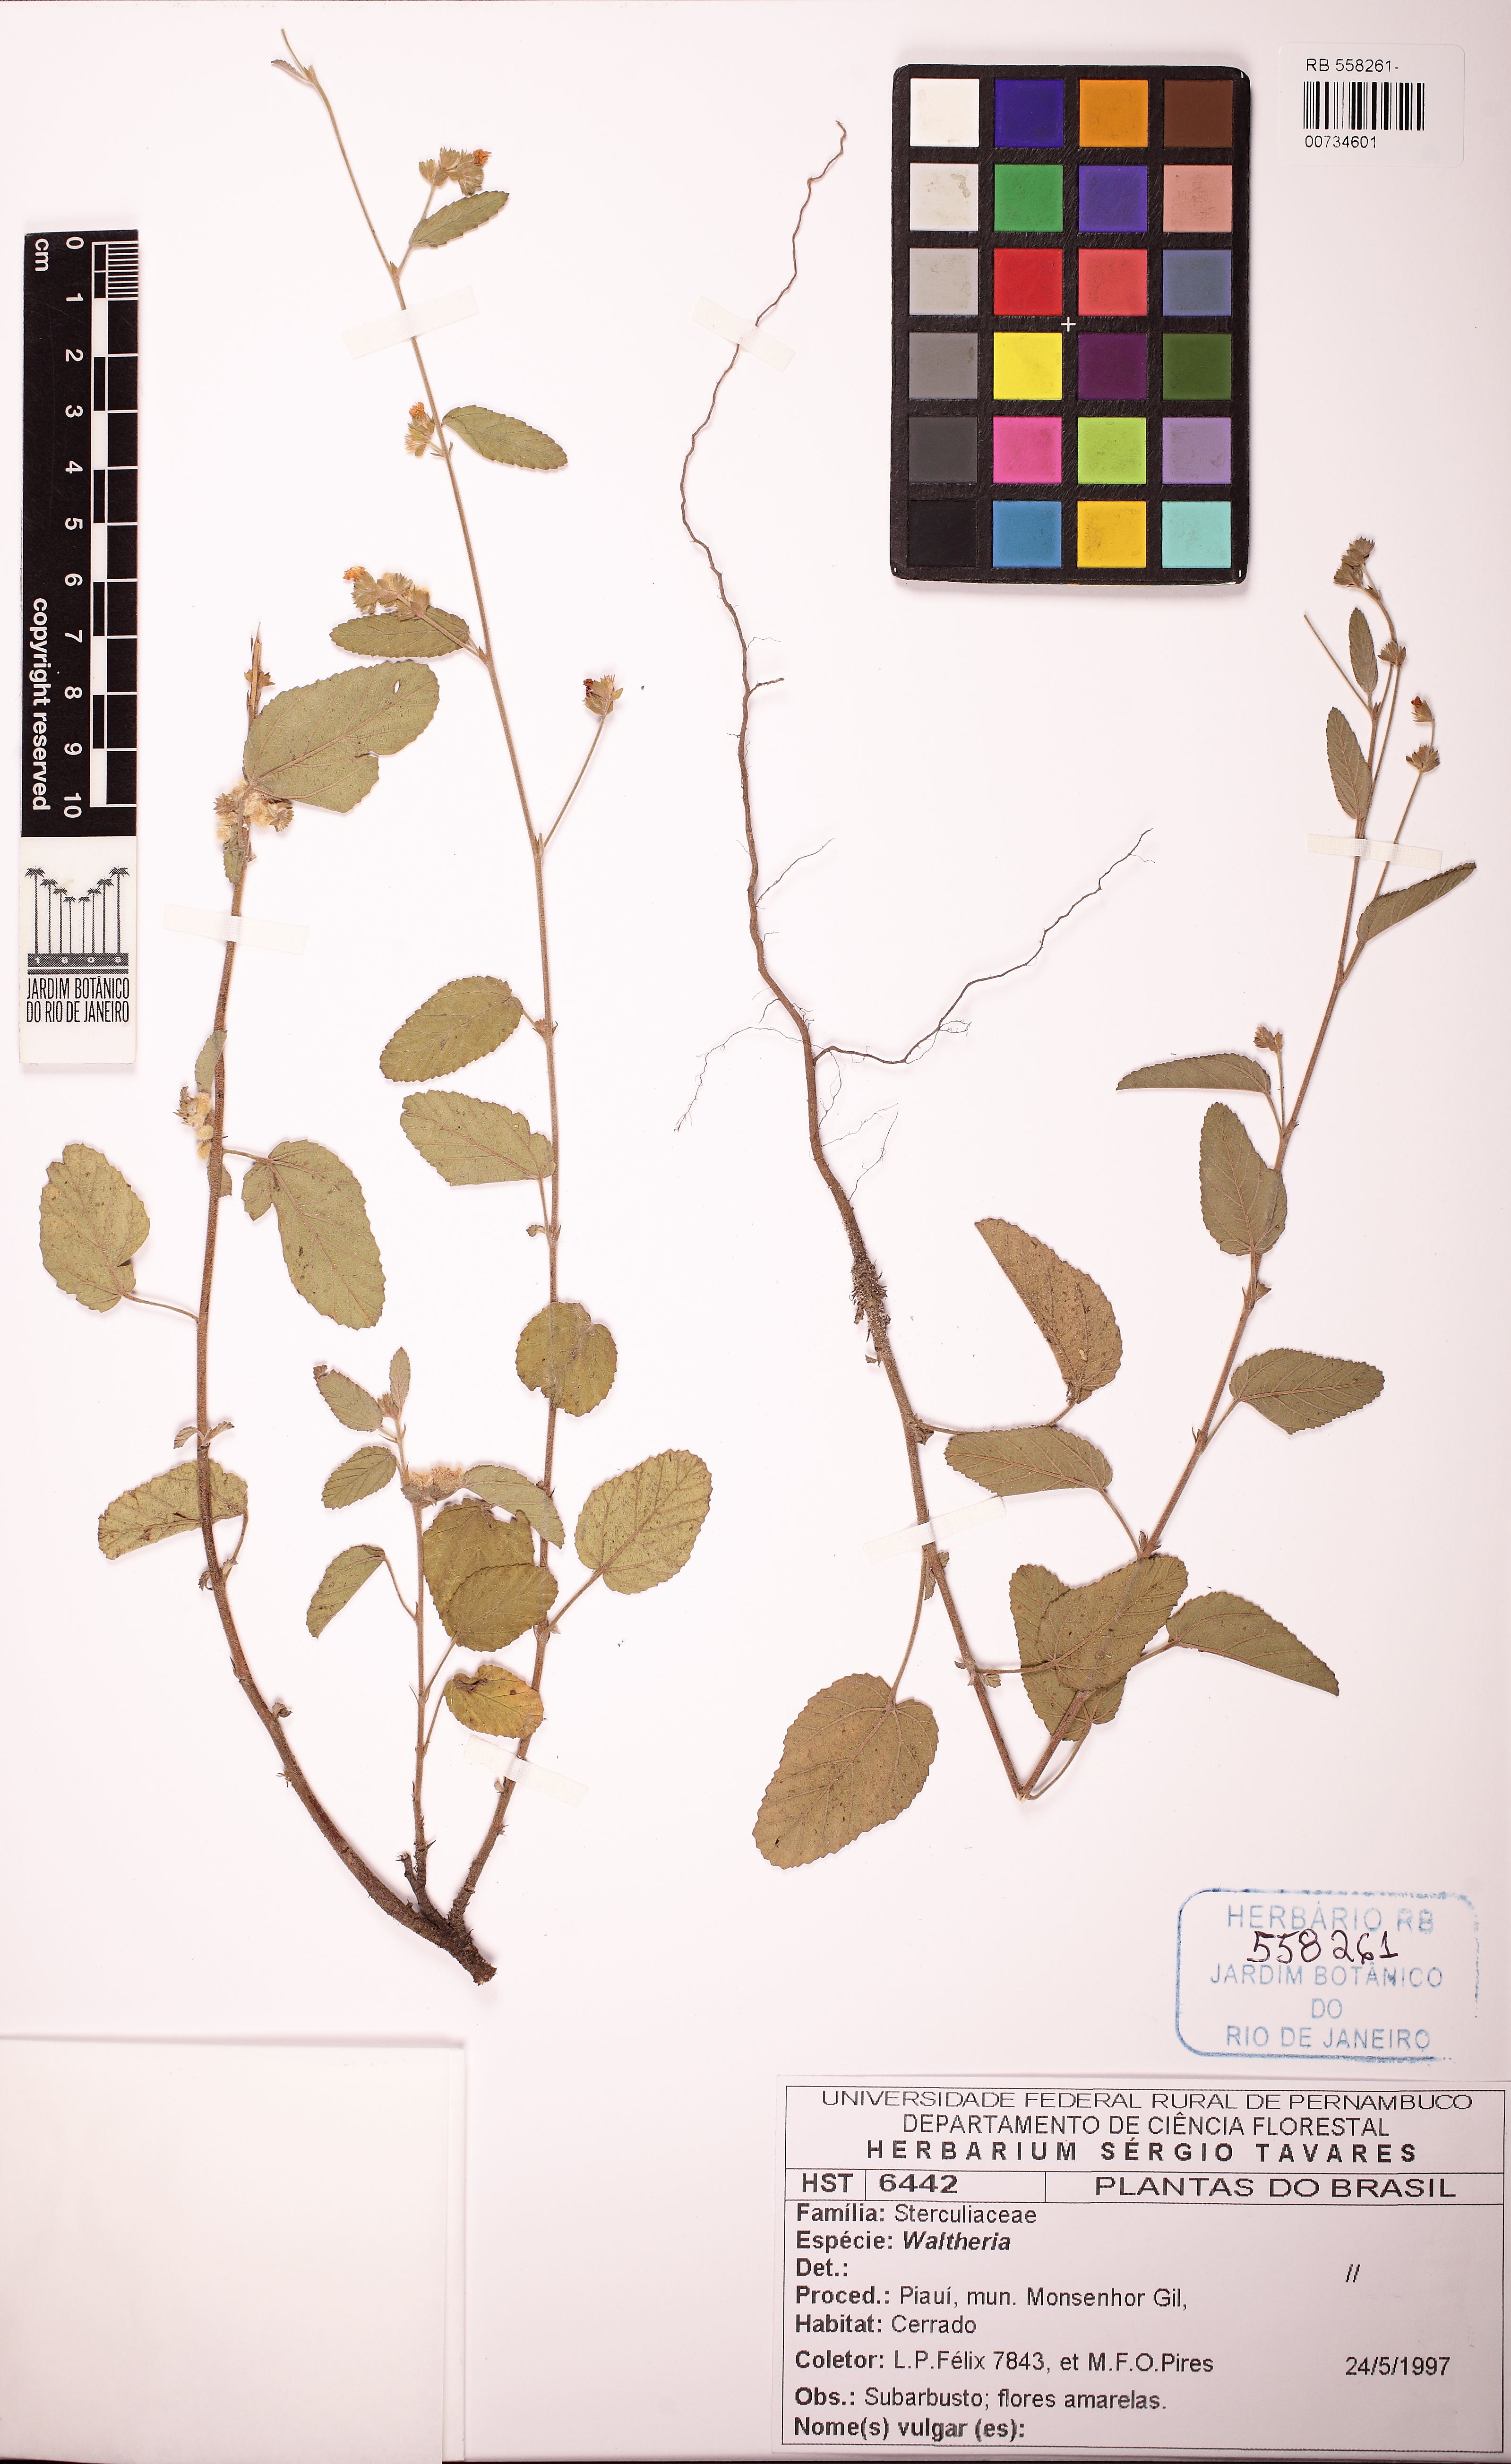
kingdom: Plantae
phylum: Tracheophyta
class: Magnoliopsida
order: Malvales
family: Malvaceae
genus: Waltheria
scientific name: Waltheria albicans
